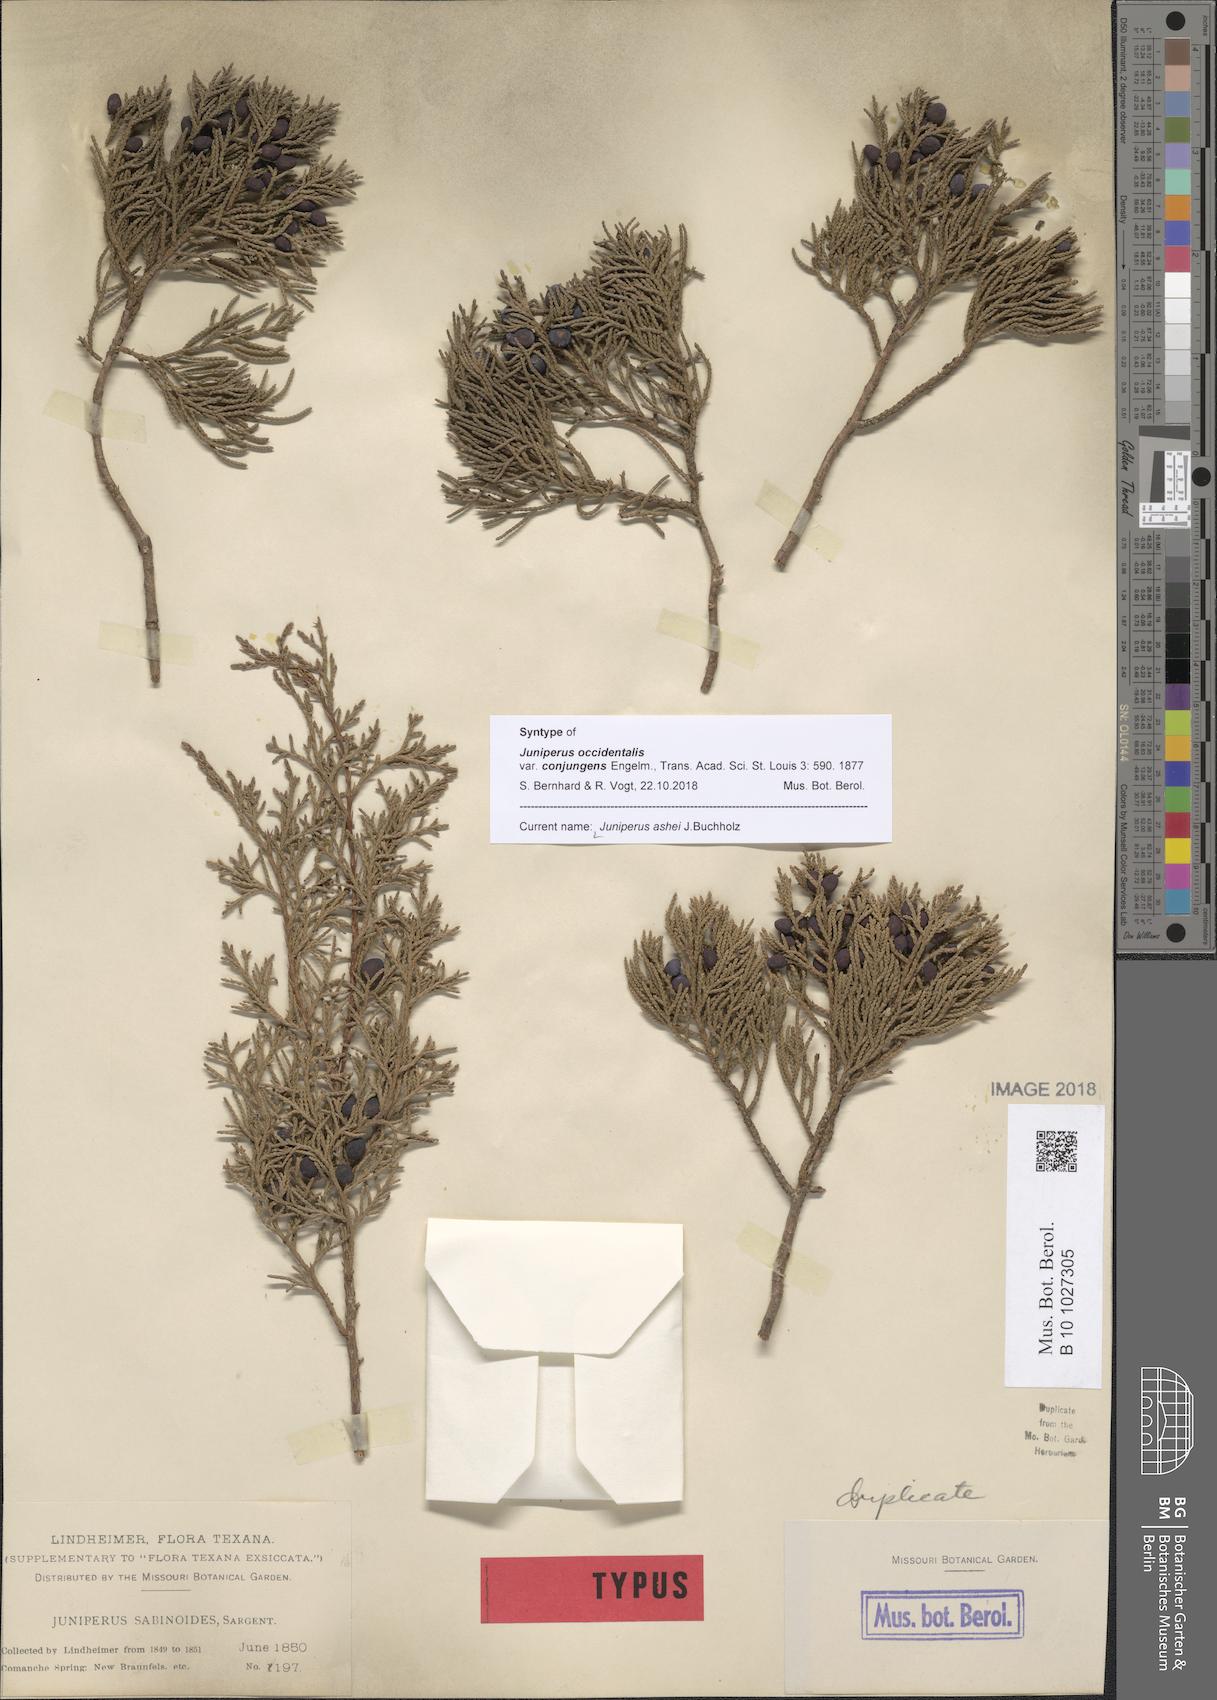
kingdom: Plantae
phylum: Tracheophyta
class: Pinopsida
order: Pinales
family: Cupressaceae
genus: Juniperus
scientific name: Juniperus ashei
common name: Mexican juniper
